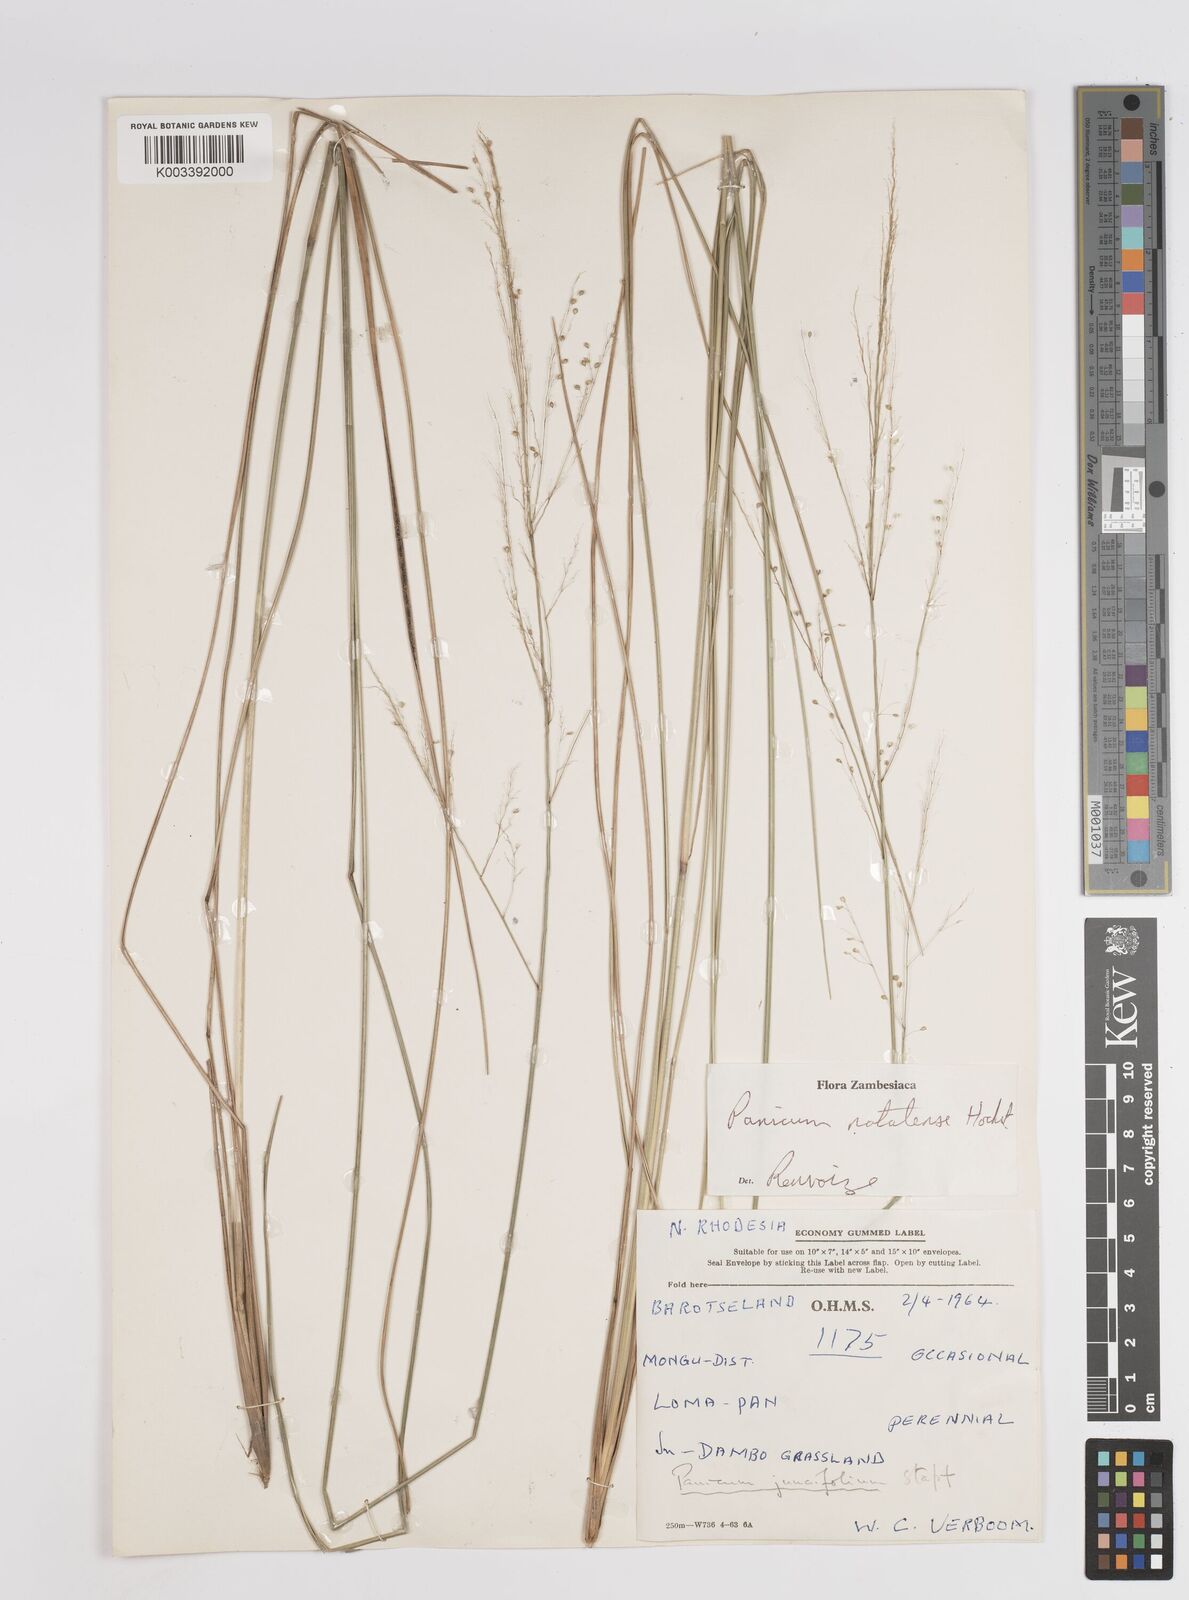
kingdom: Plantae
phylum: Tracheophyta
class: Liliopsida
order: Poales
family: Poaceae
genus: Trichanthecium
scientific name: Trichanthecium natalense
